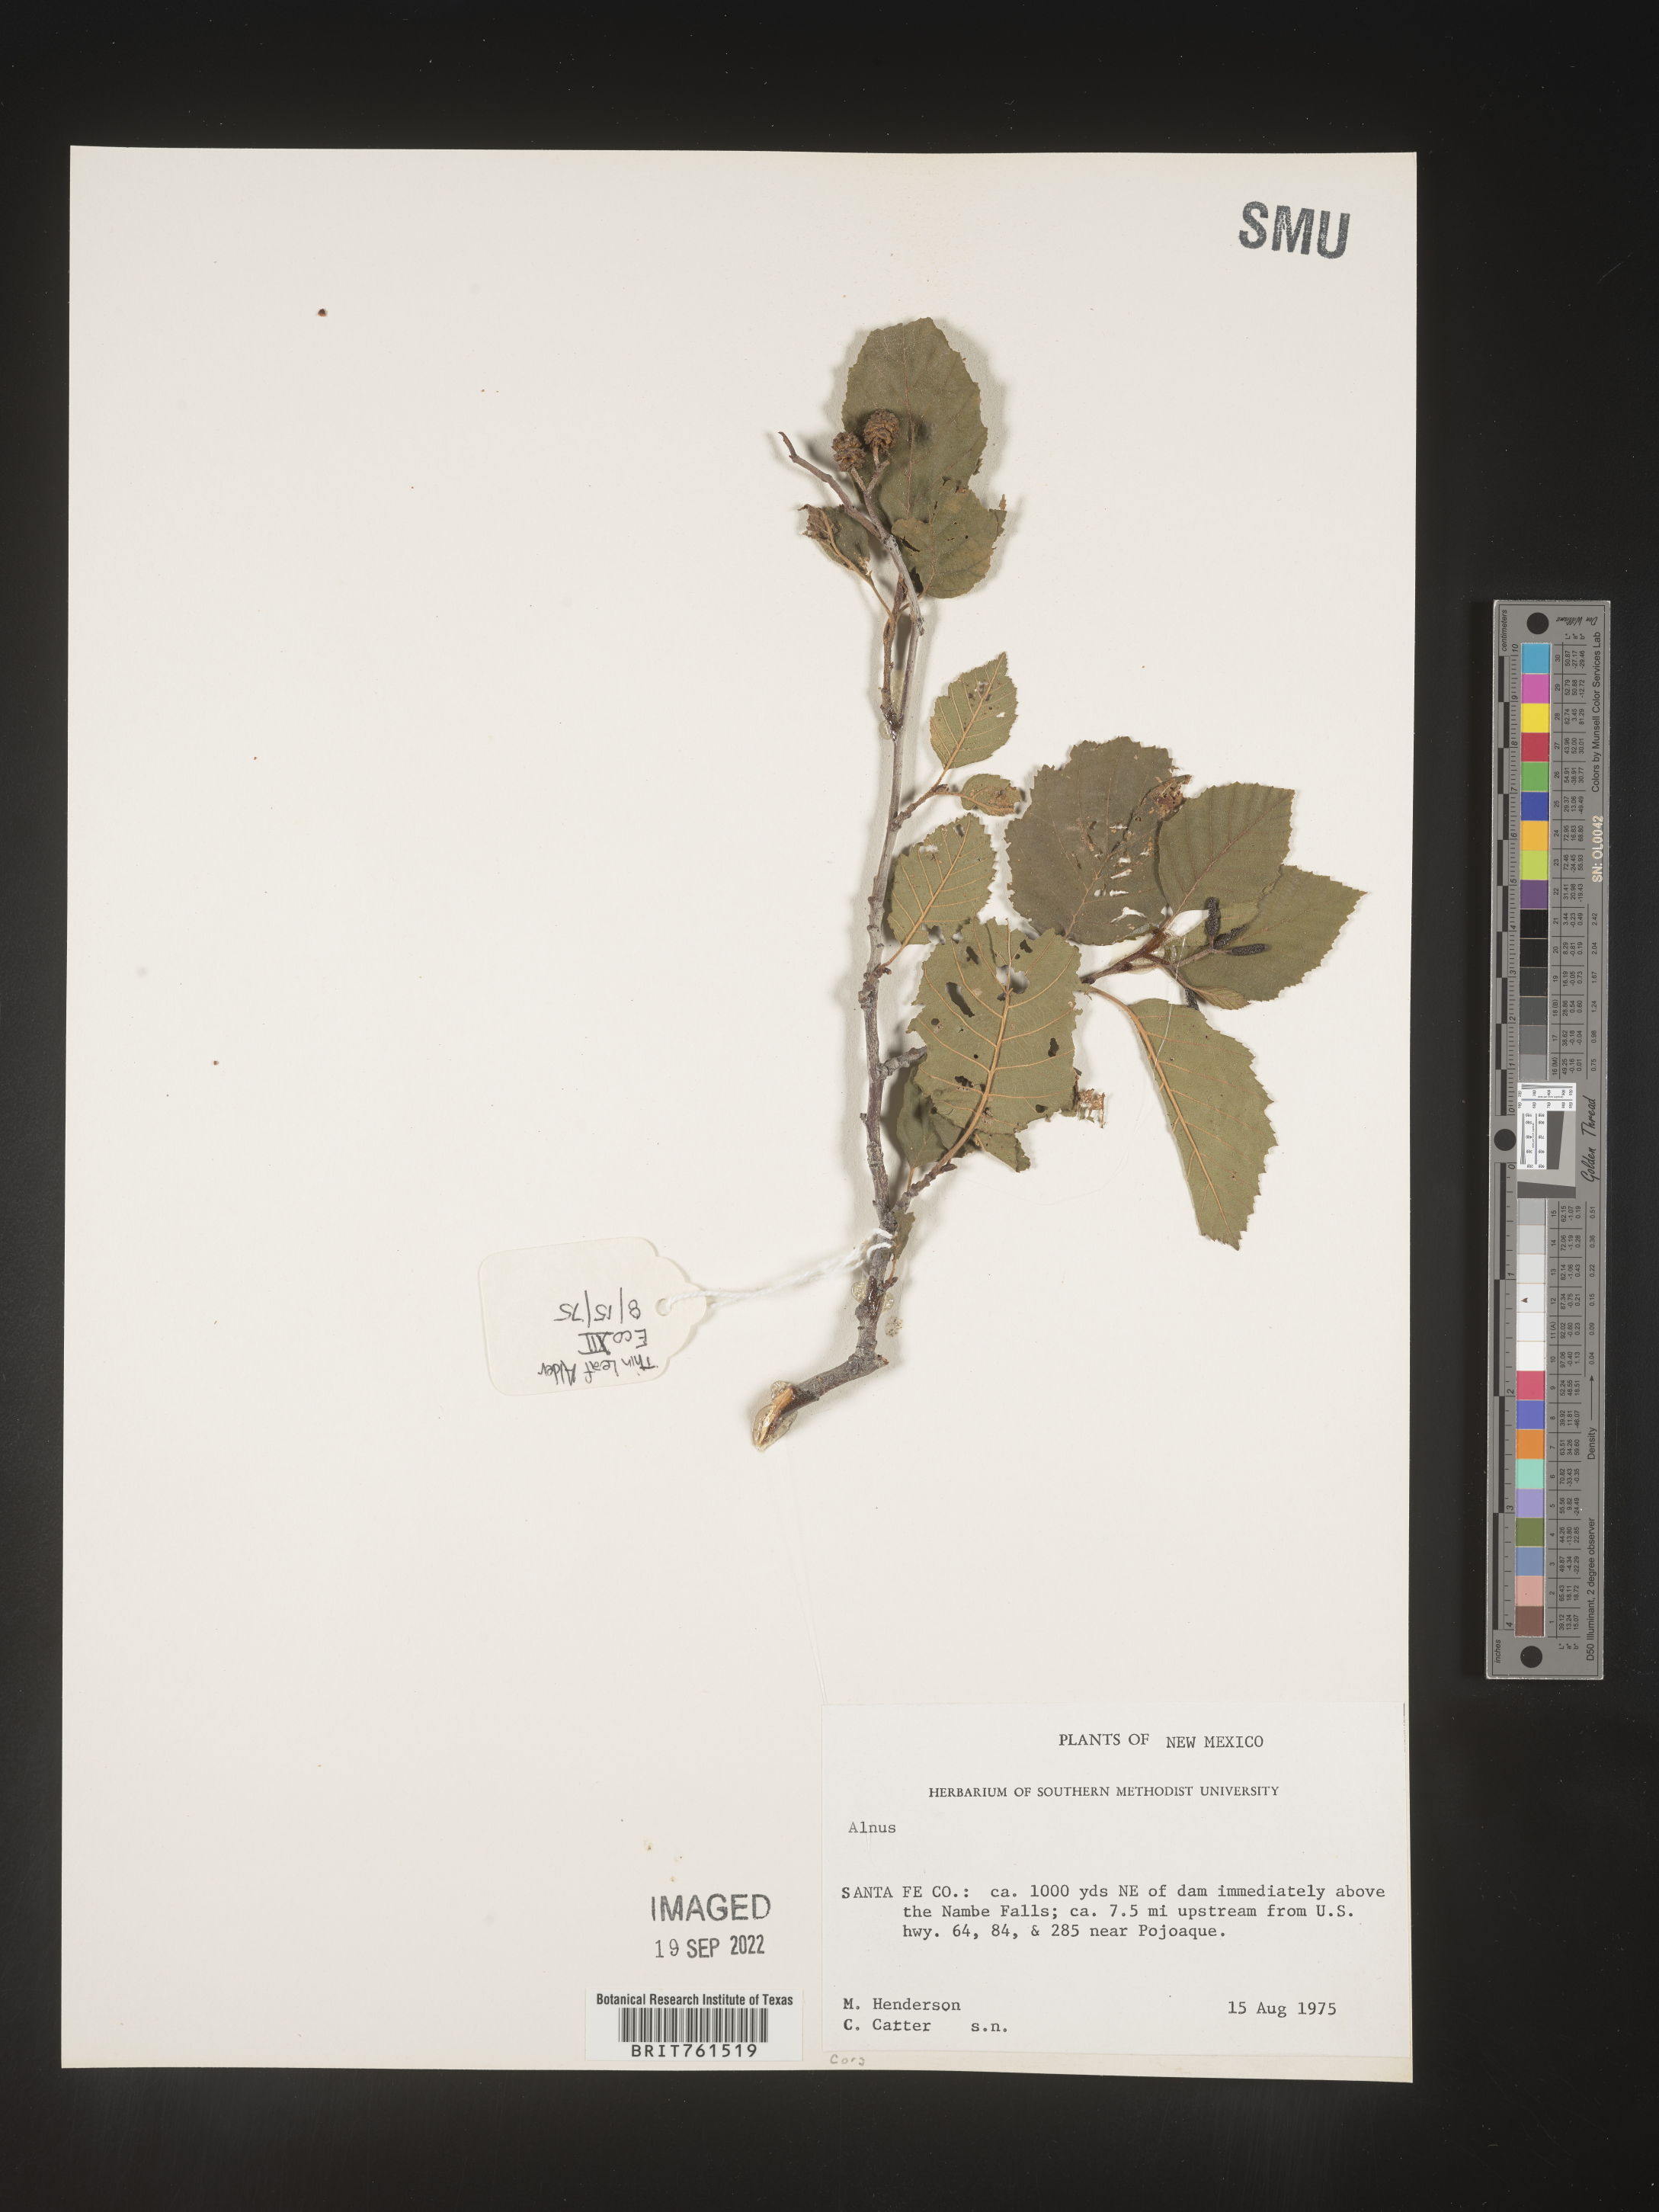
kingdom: Plantae
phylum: Tracheophyta
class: Magnoliopsida
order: Fagales
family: Betulaceae
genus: Alnus
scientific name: Alnus
